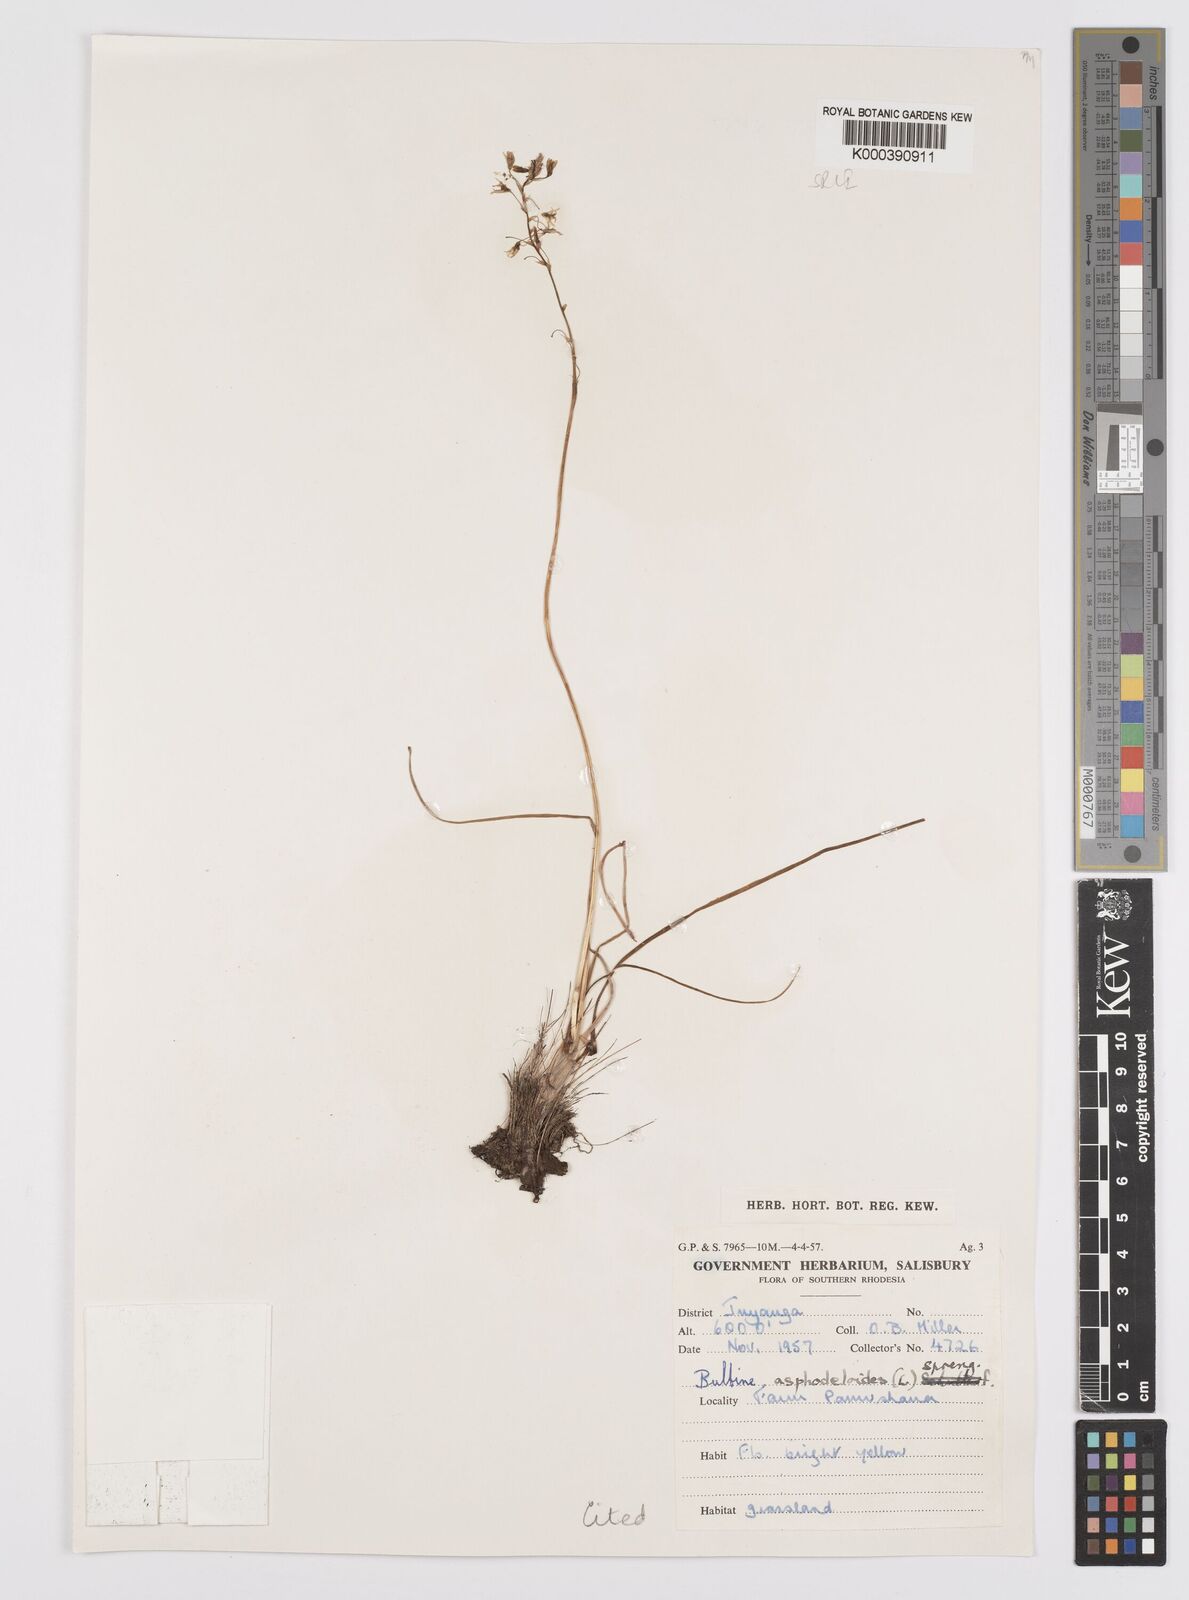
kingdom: Plantae
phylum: Tracheophyta
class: Liliopsida
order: Asparagales
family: Asphodelaceae
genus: Bulbine
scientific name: Bulbine favosa
